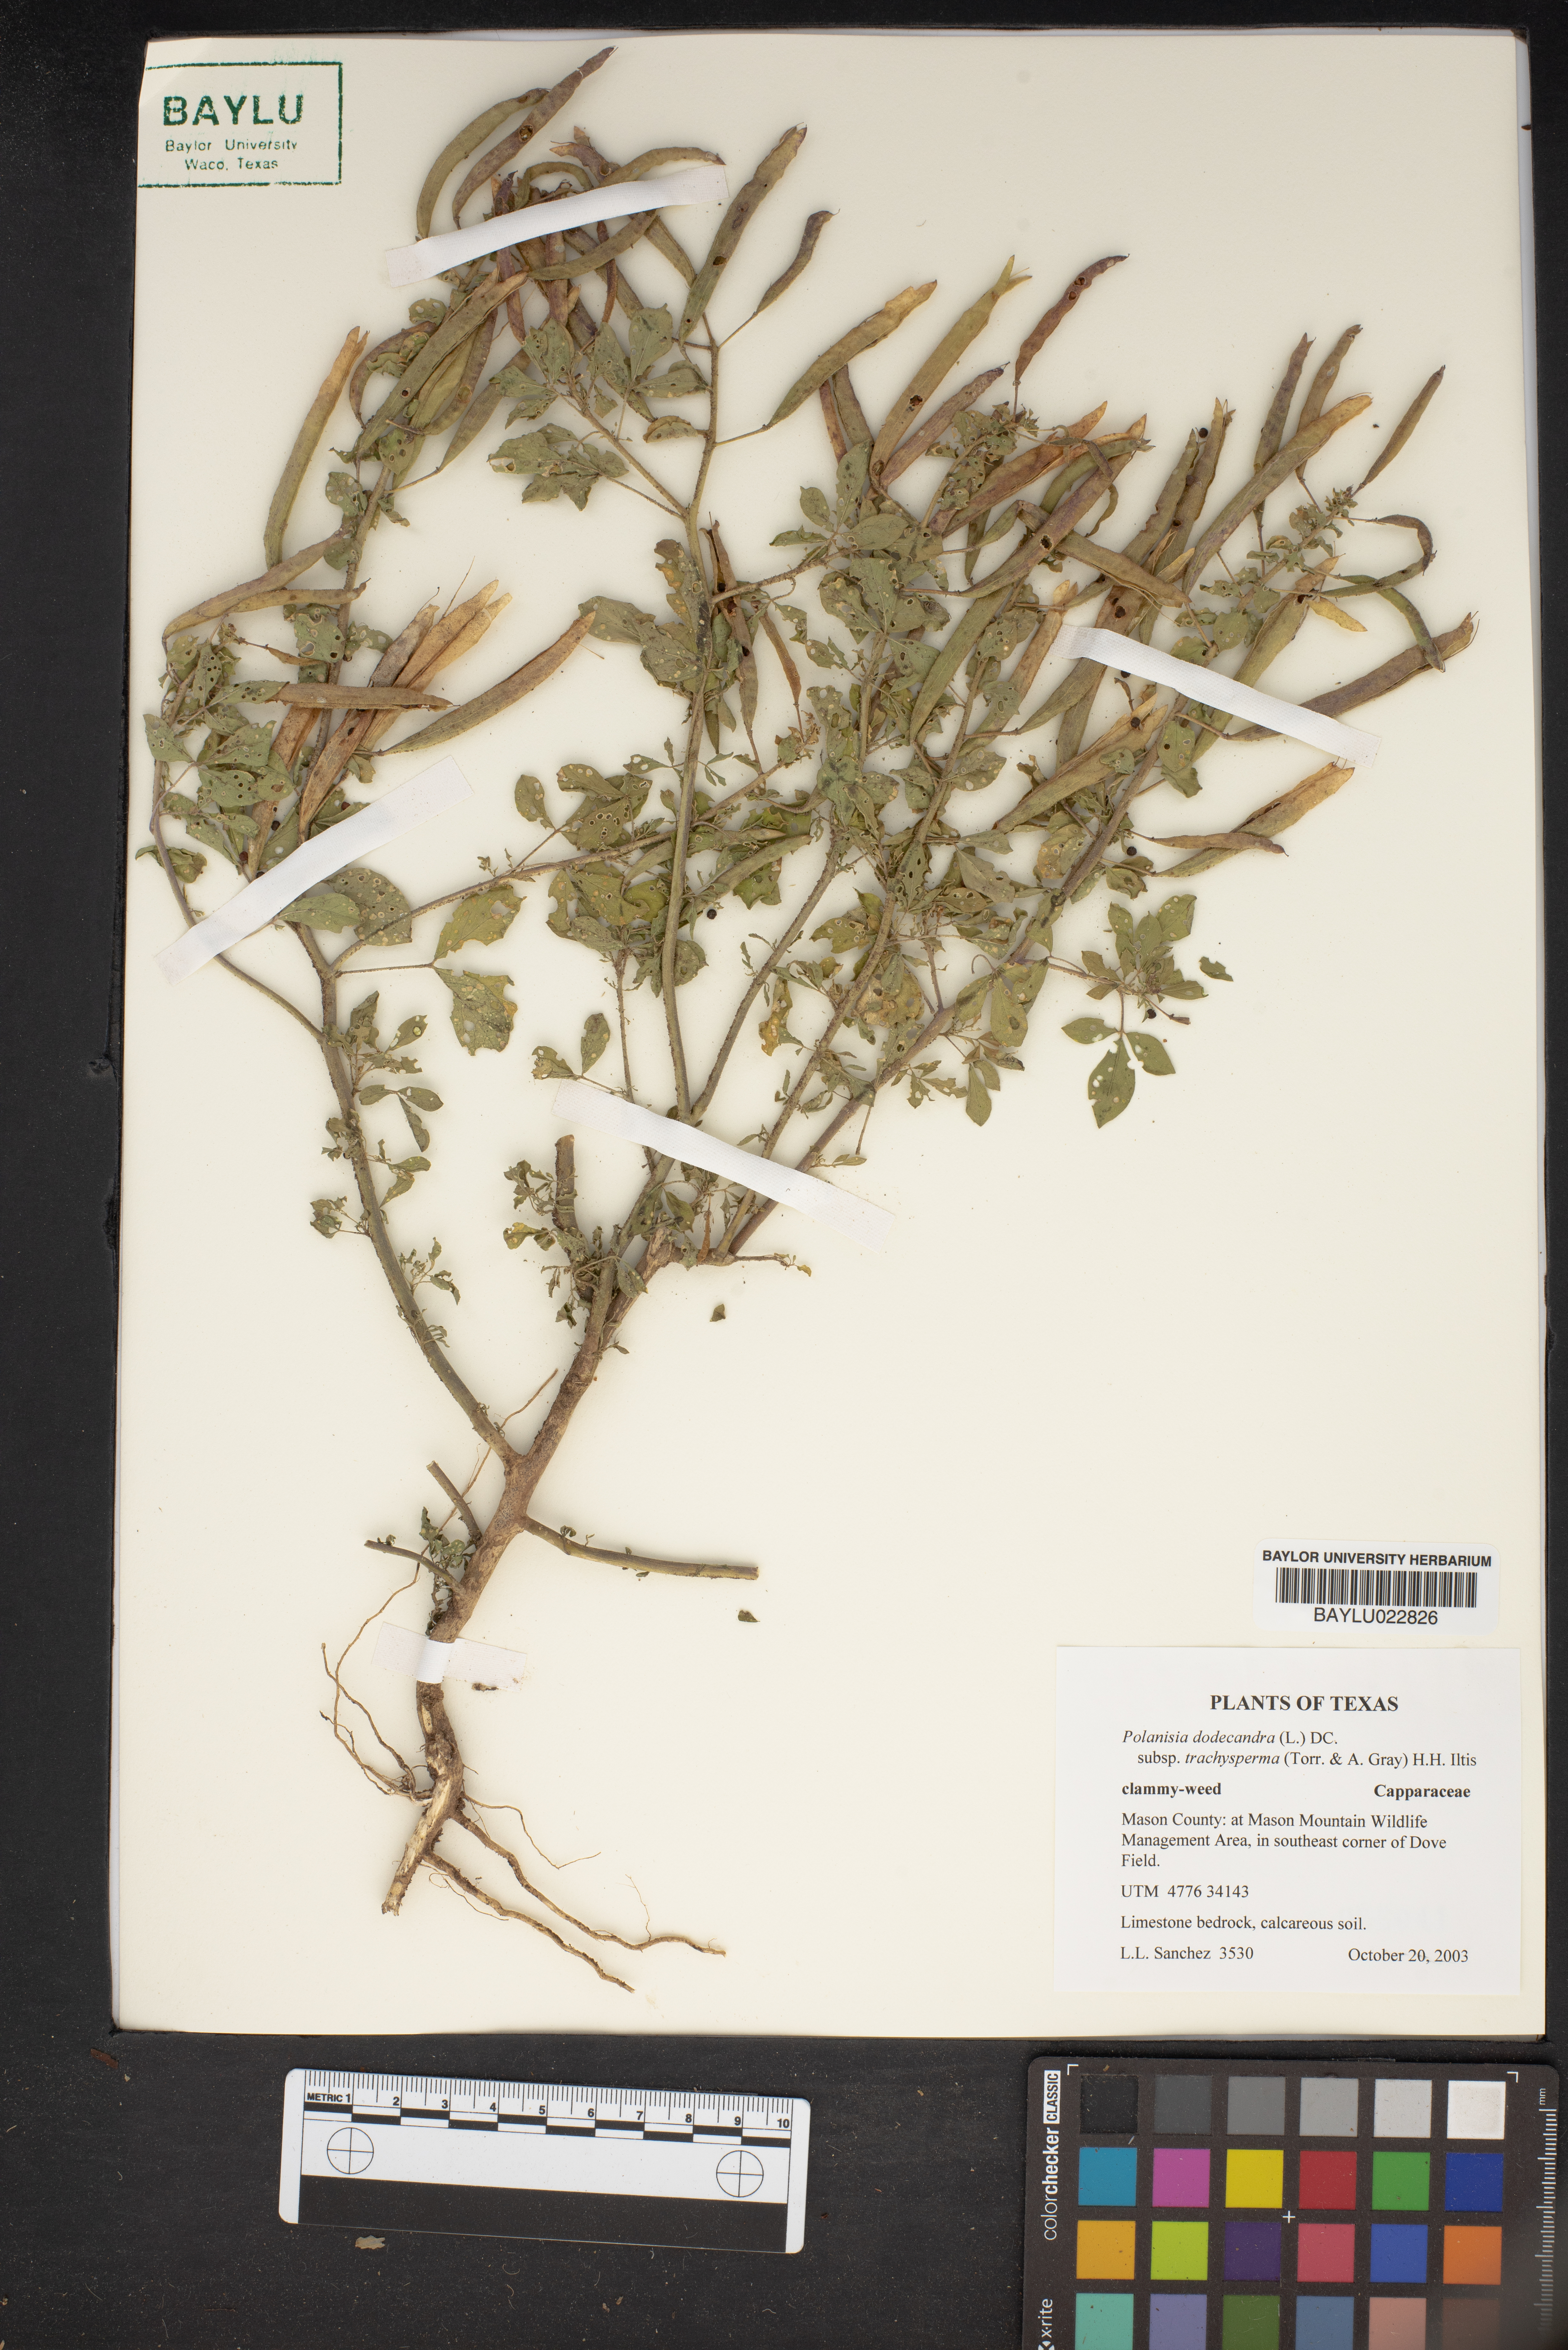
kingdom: Plantae
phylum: Tracheophyta
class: Magnoliopsida
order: Brassicales
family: Cleomaceae
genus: Polanisia
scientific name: Polanisia trachysperma
